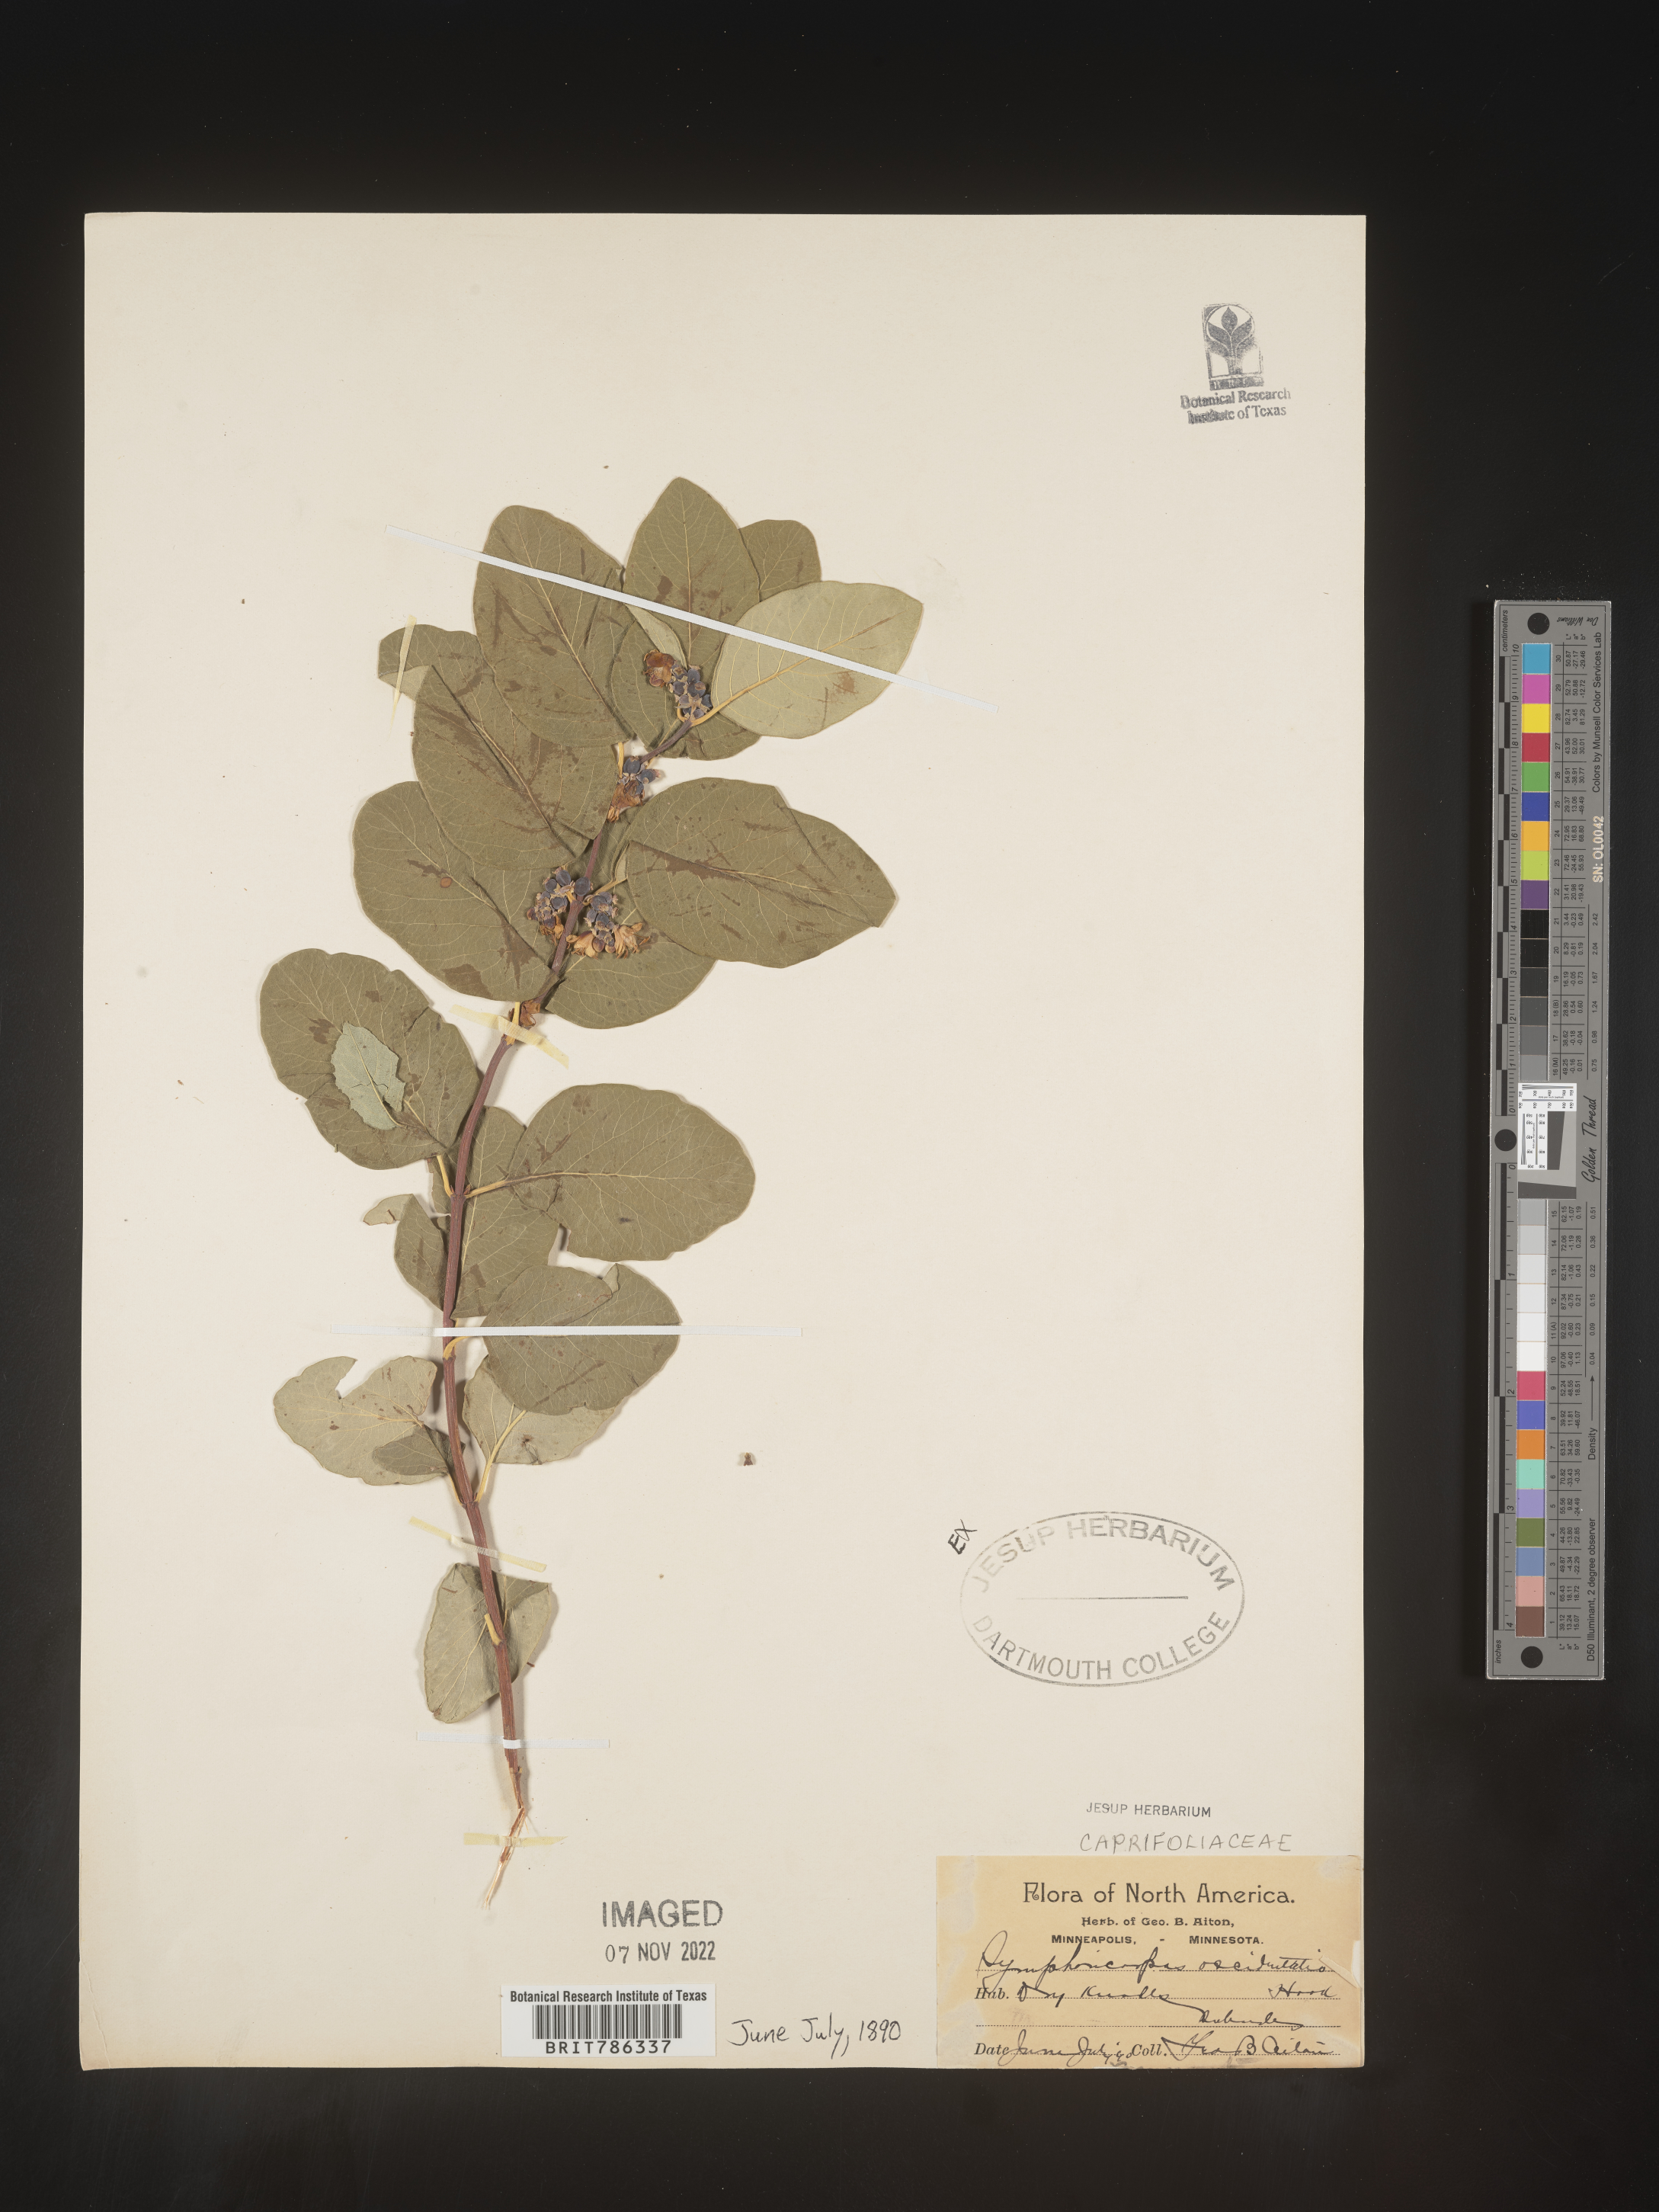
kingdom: Plantae
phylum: Tracheophyta
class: Magnoliopsida
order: Dipsacales
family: Caprifoliaceae
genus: Symphoricarpos
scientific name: Symphoricarpos occidentalis
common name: Wolfberry
